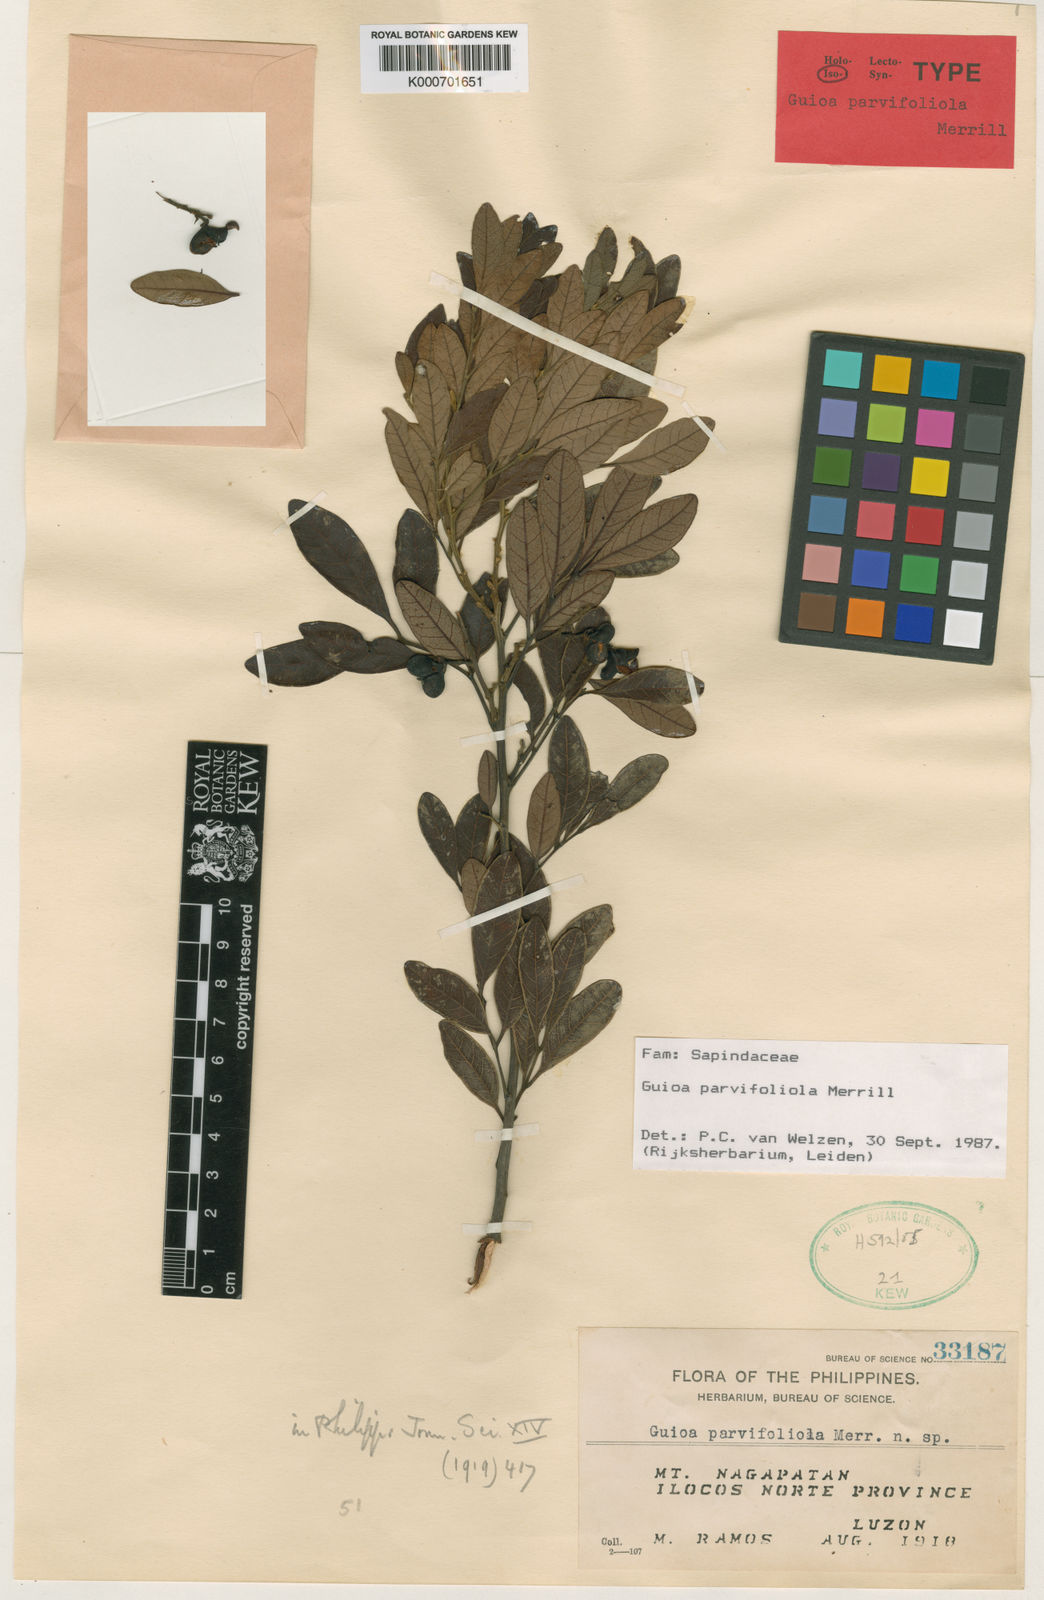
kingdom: Plantae
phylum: Tracheophyta
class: Magnoliopsida
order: Sapindales
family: Sapindaceae
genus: Guioa
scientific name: Guioa parvifoliola
